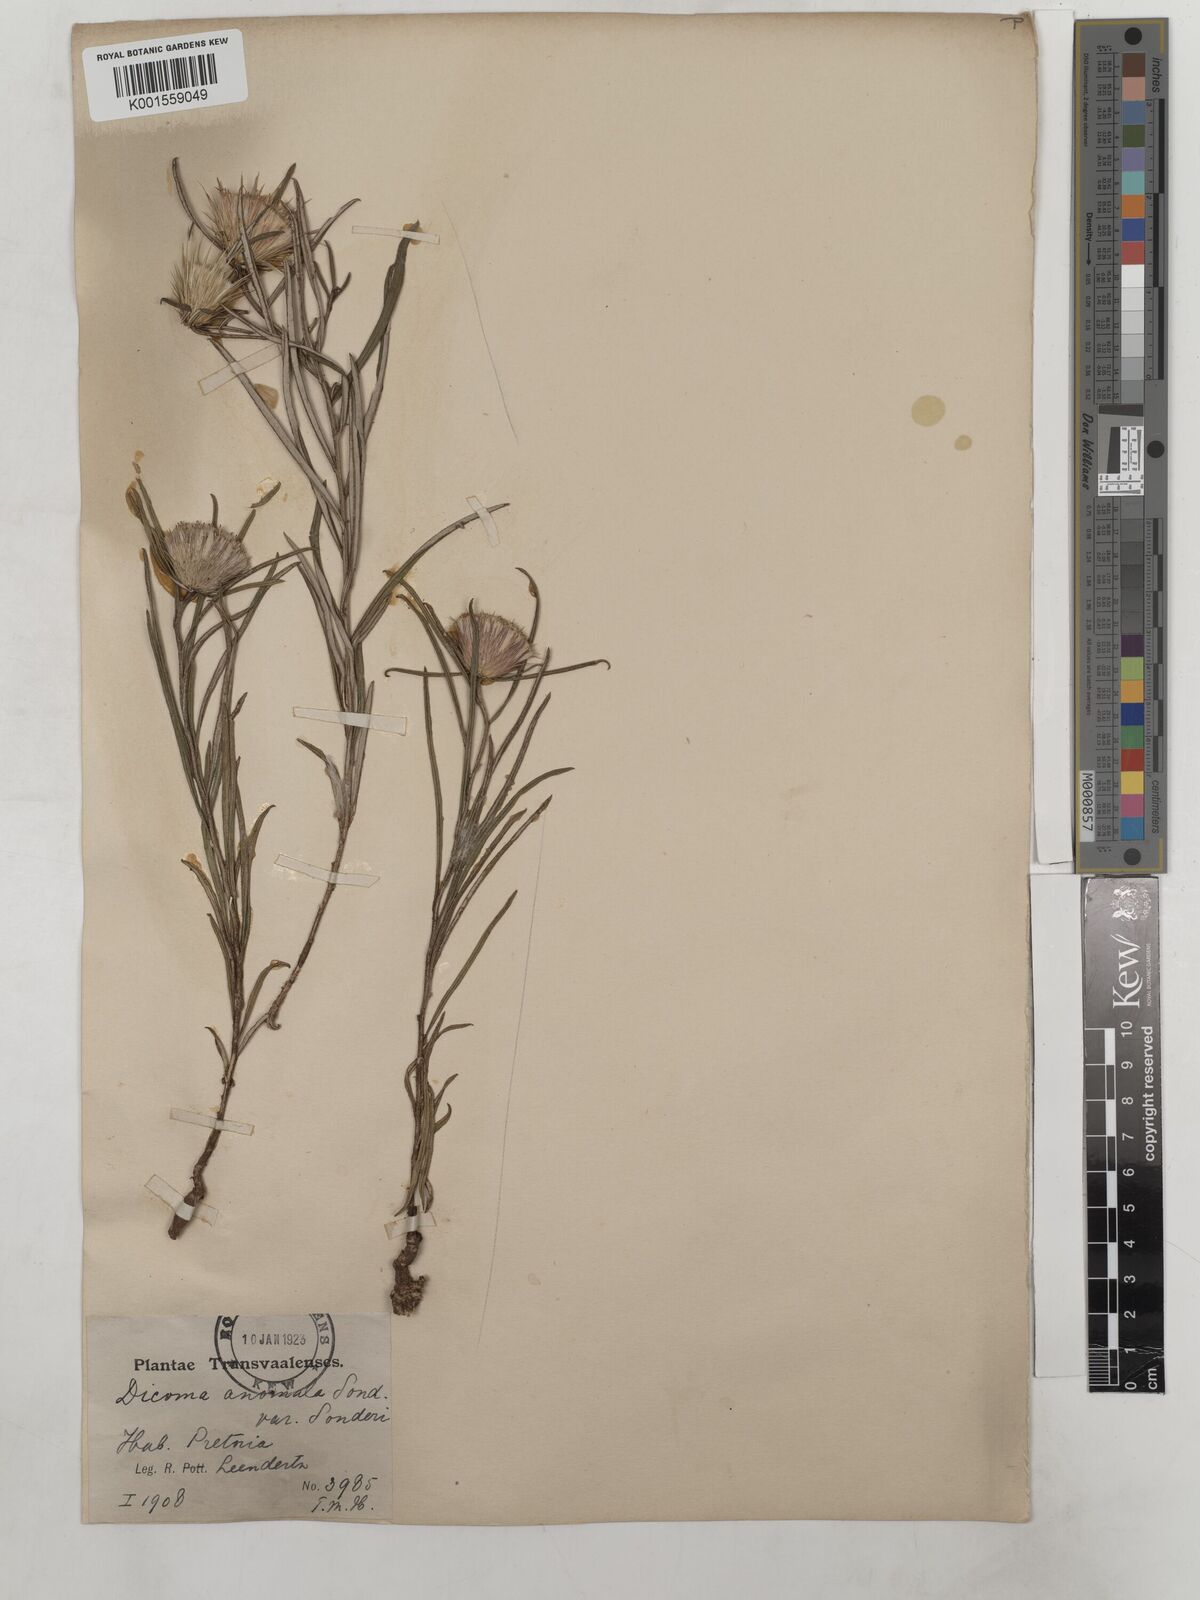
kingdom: Plantae
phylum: Tracheophyta
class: Magnoliopsida
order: Asterales
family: Asteraceae
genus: Dicoma
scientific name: Dicoma anomala
